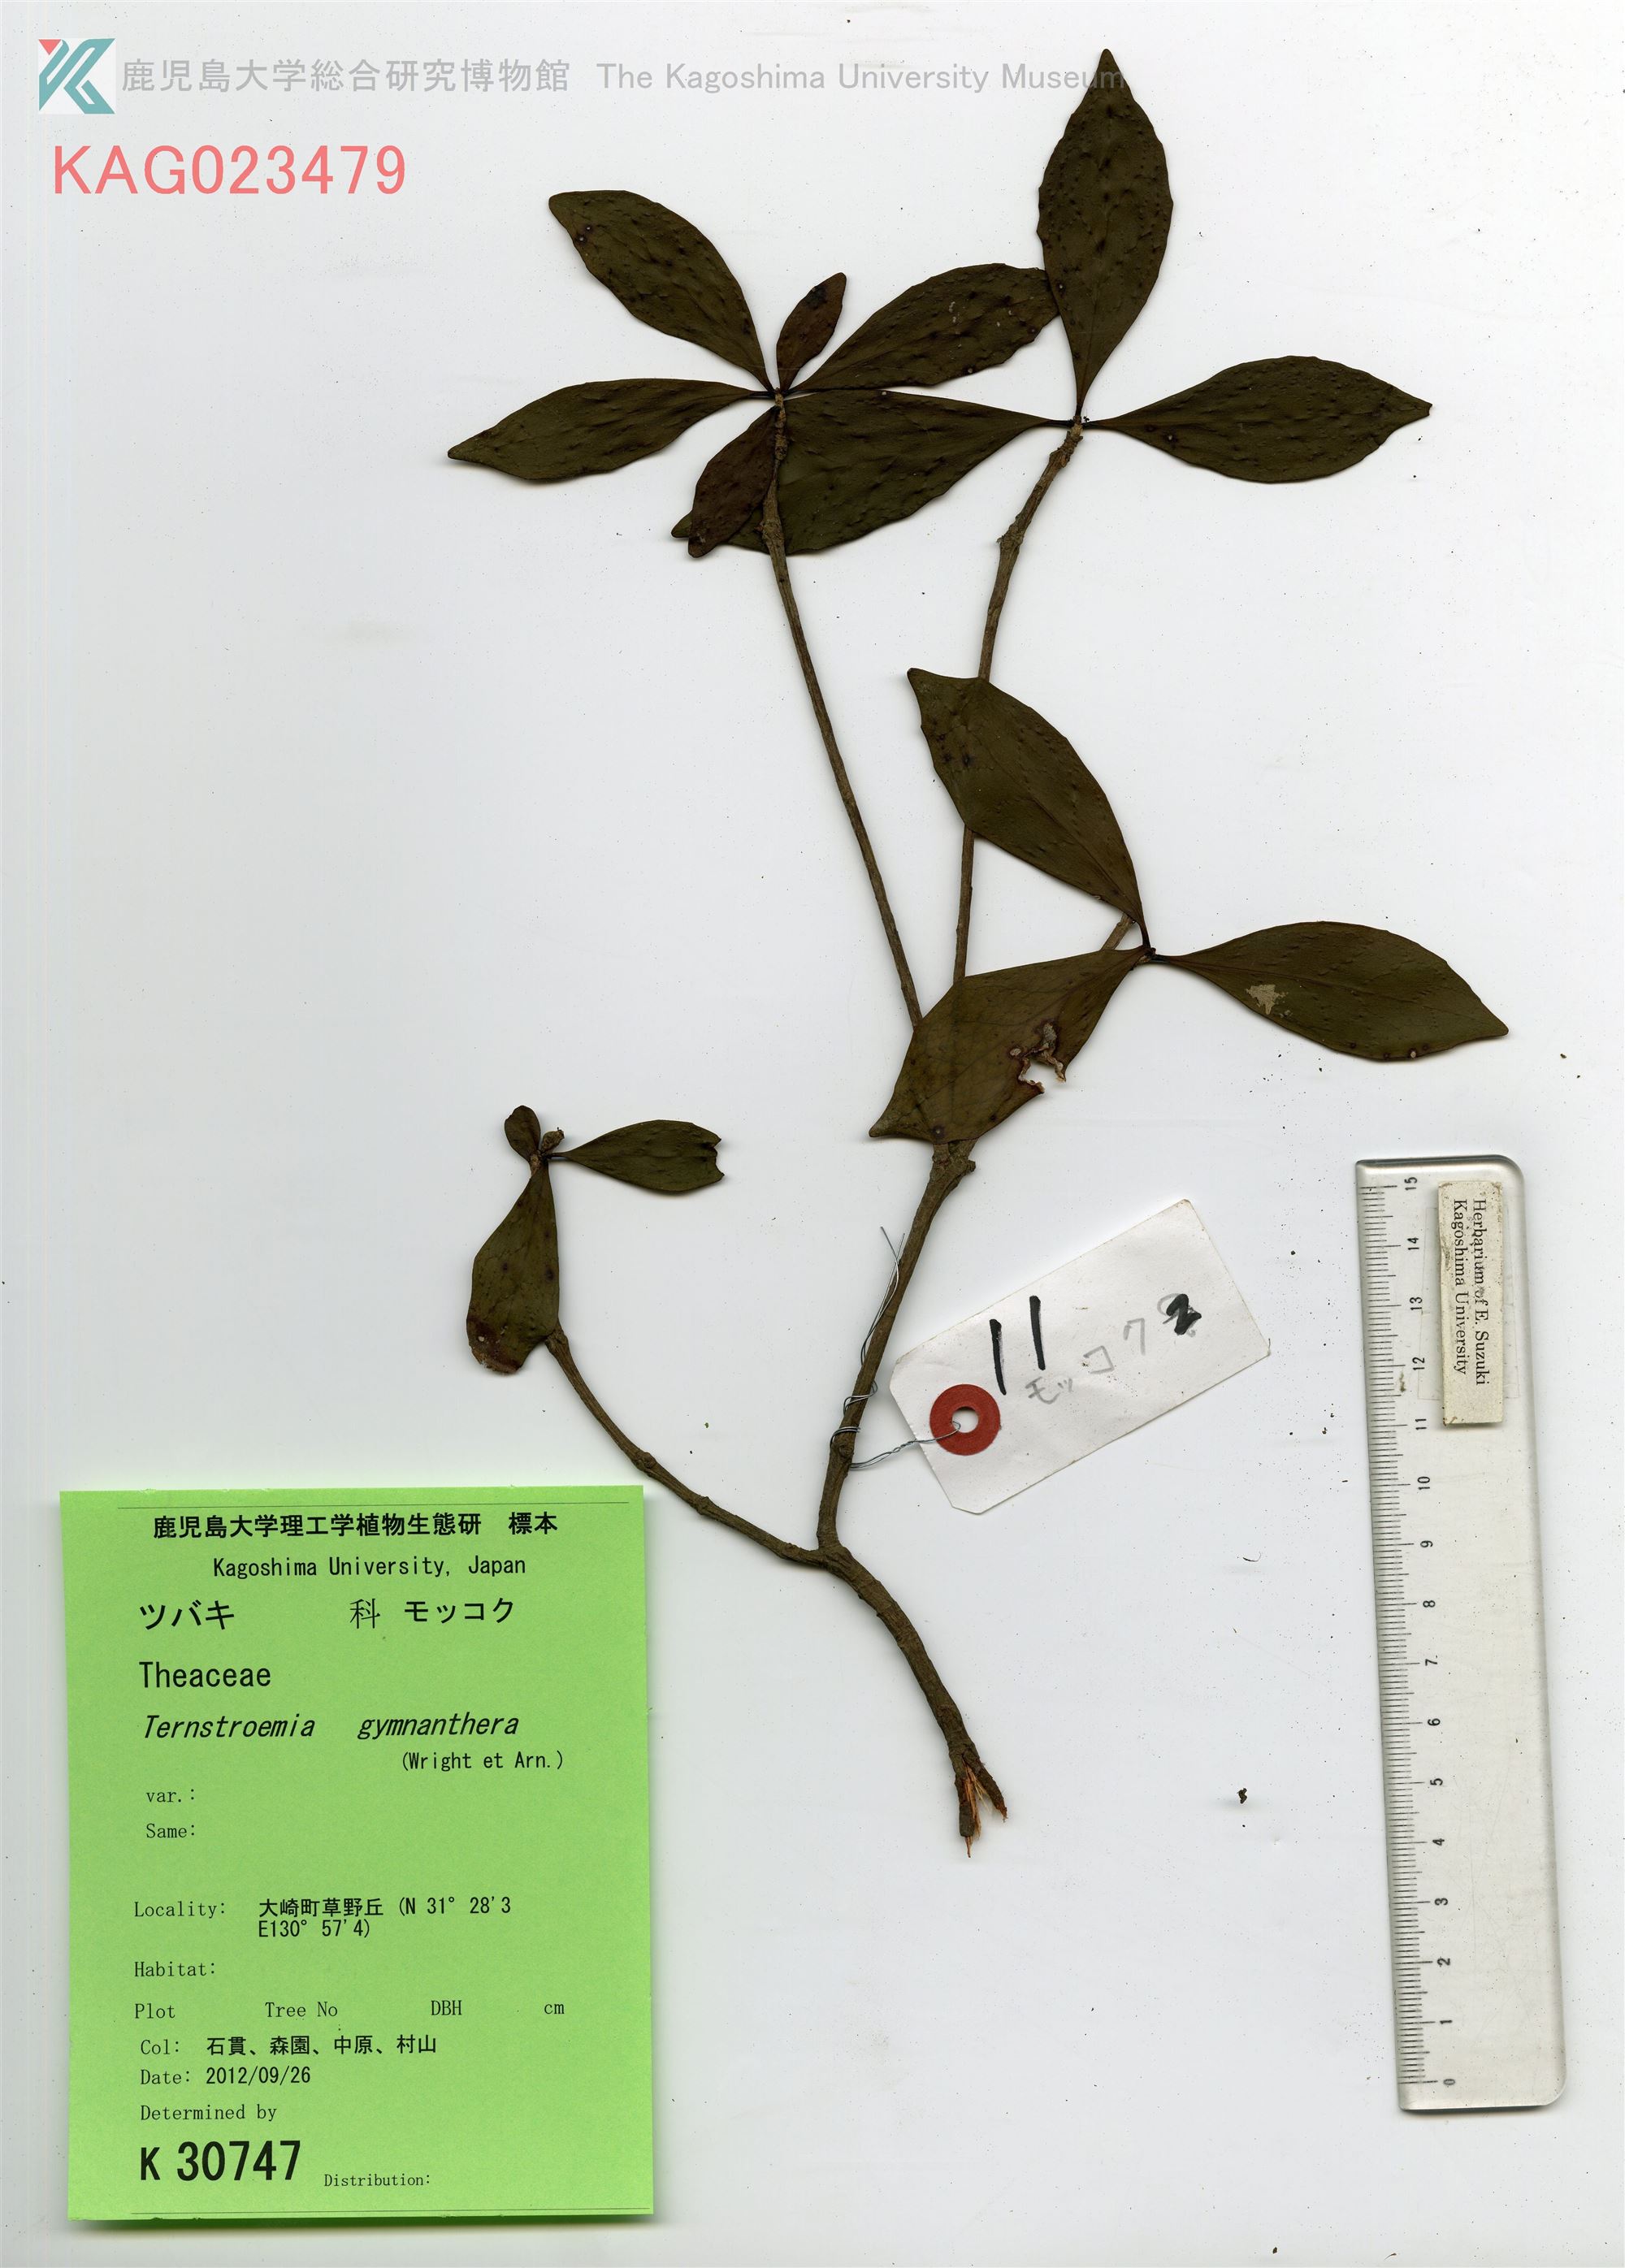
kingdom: Plantae
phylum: Tracheophyta
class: Magnoliopsida
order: Ericales
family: Pentaphylacaceae
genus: Ternstroemia
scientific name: Ternstroemia gymnanthera
